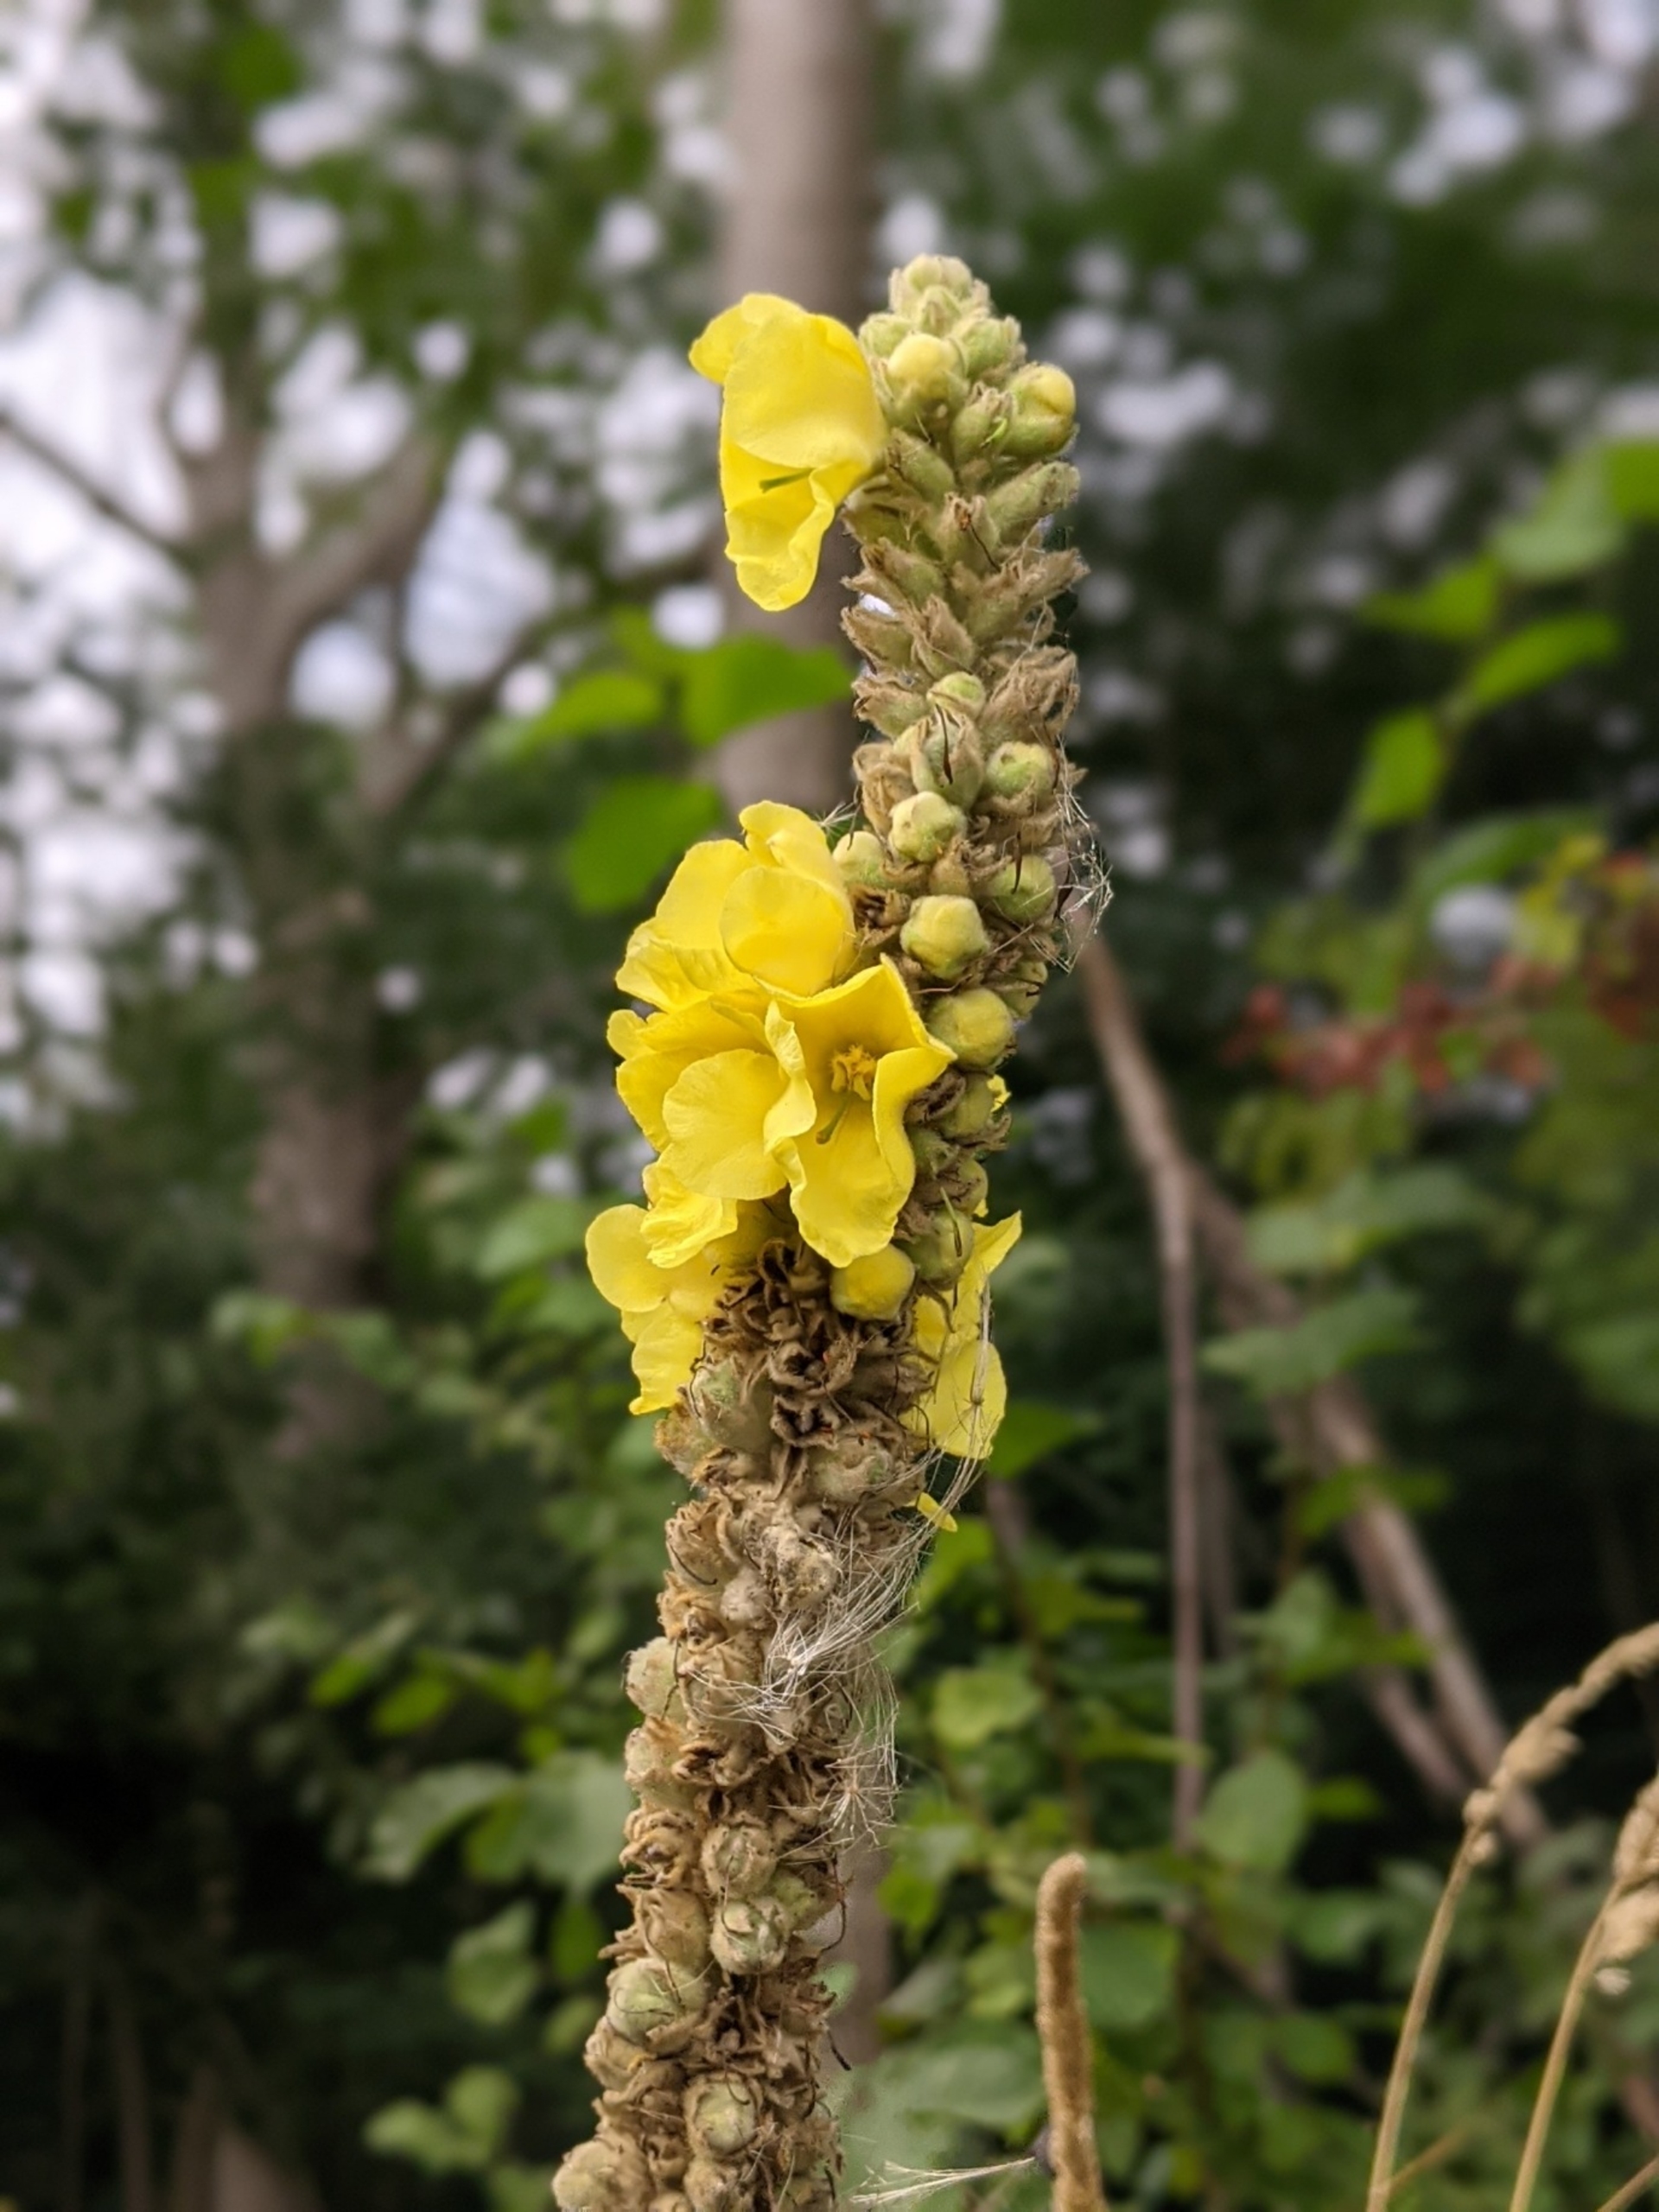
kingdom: Plantae
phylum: Tracheophyta
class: Magnoliopsida
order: Lamiales
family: Scrophulariaceae
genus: Verbascum
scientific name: Verbascum densiflorum
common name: Uldbladet kongelys
